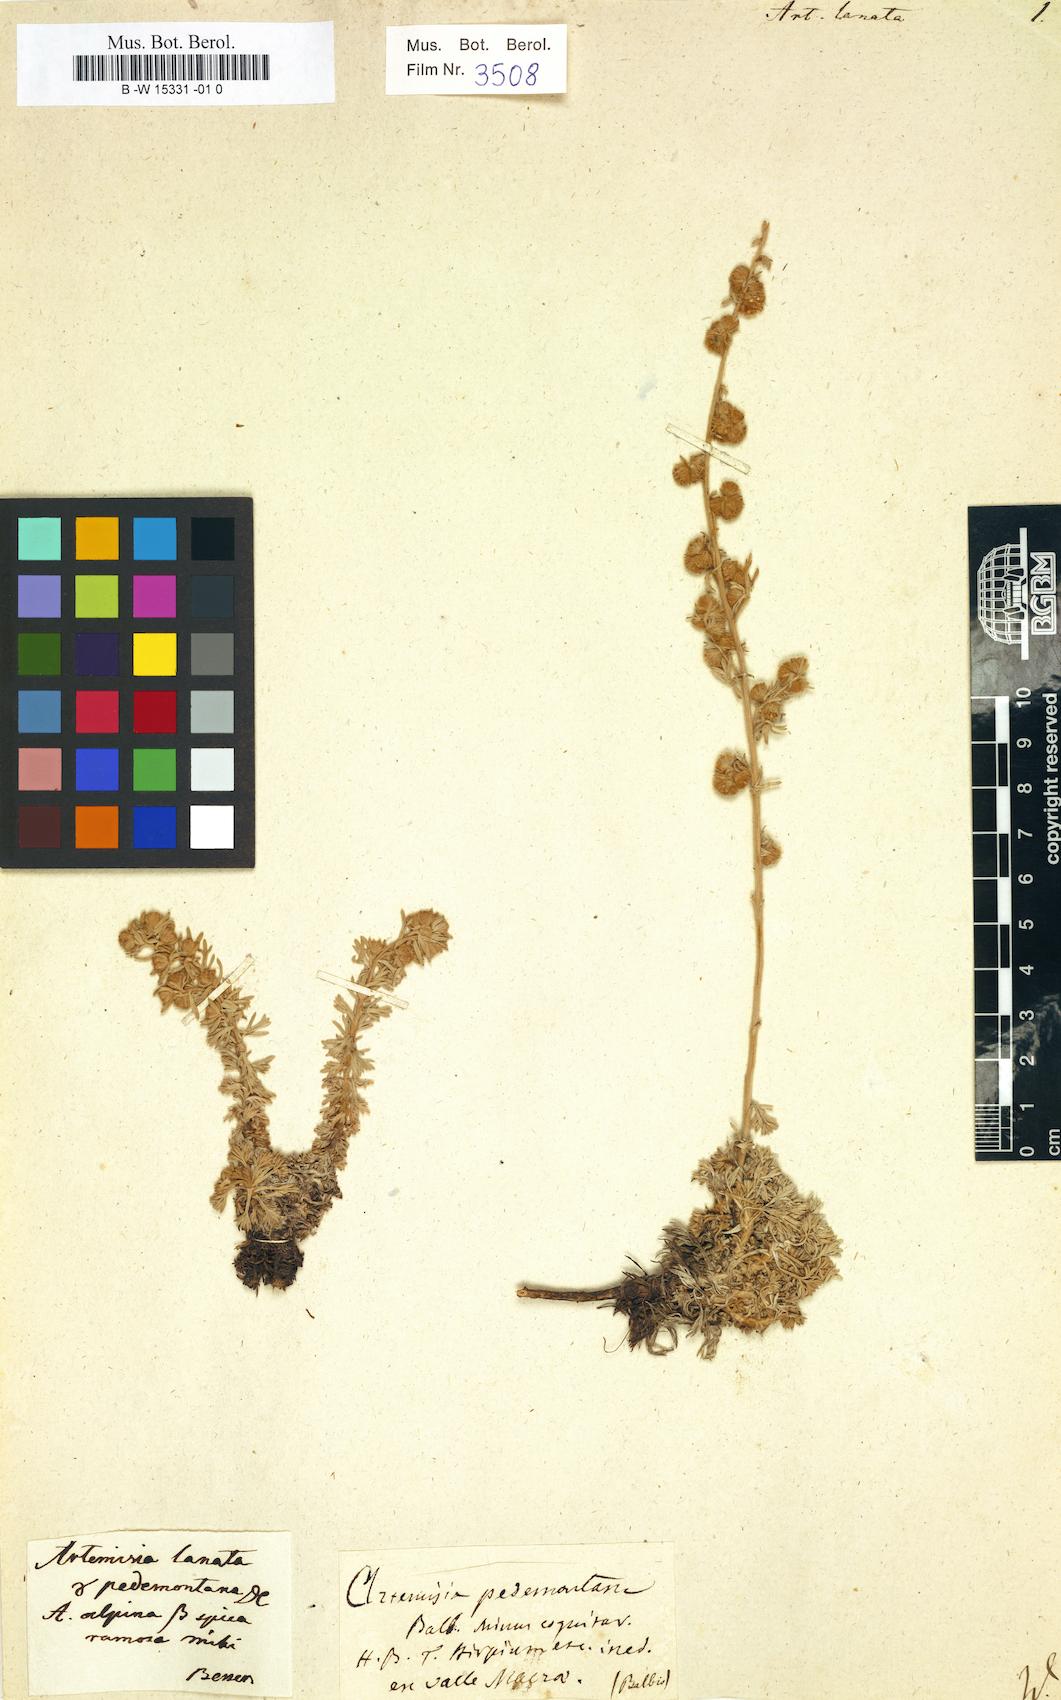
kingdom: Plantae
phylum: Tracheophyta
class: Magnoliopsida
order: Asterales
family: Asteraceae
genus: Artemisia
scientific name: Artemisia pedemontana
